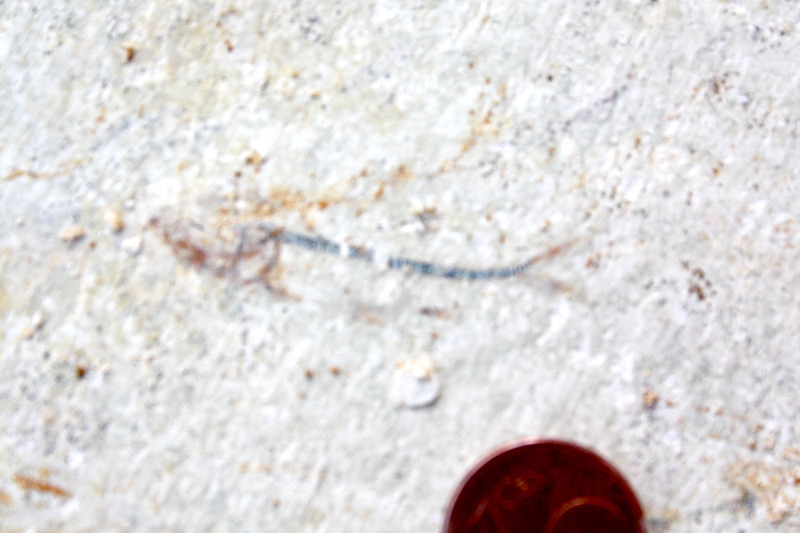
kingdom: Animalia
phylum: Chordata
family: Ascalaboidae
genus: Ebertichthys
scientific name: Ebertichthys ettlingensis
